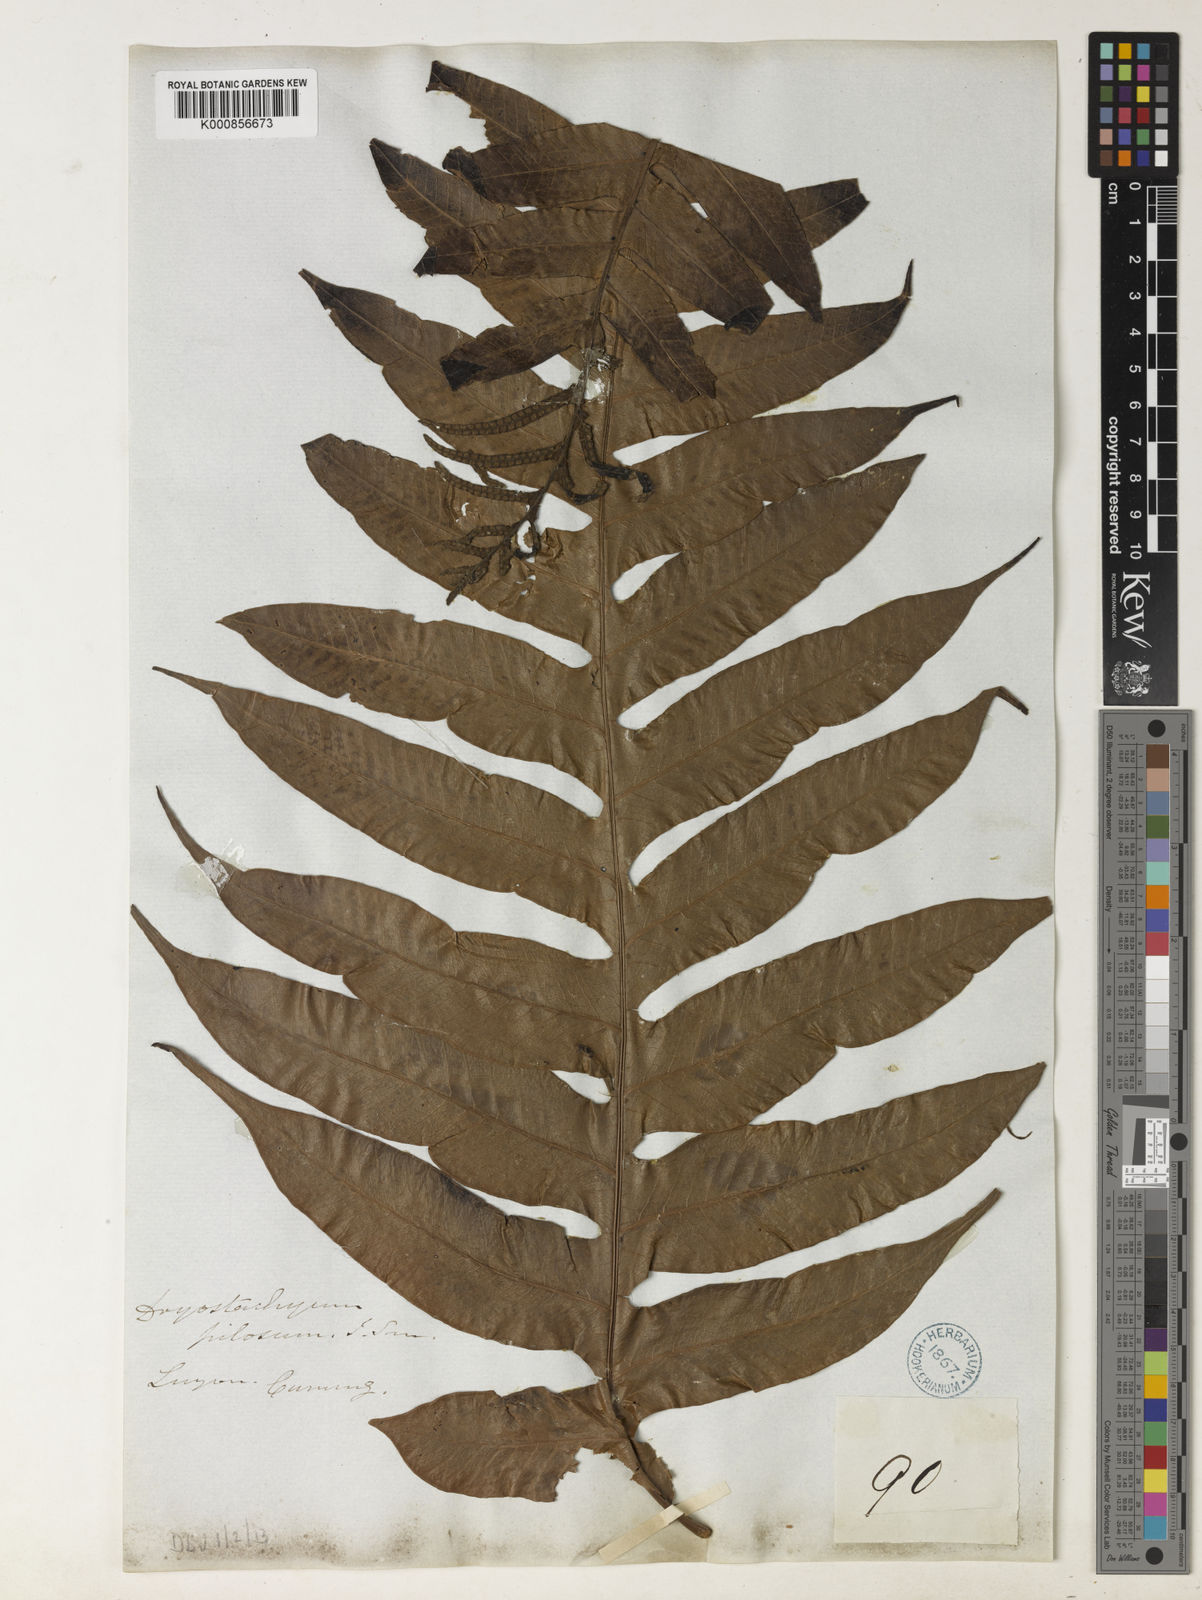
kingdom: Plantae
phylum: Tracheophyta
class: Polypodiopsida
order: Polypodiales
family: Polypodiaceae
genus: Drynaria
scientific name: Drynaria pilosa
